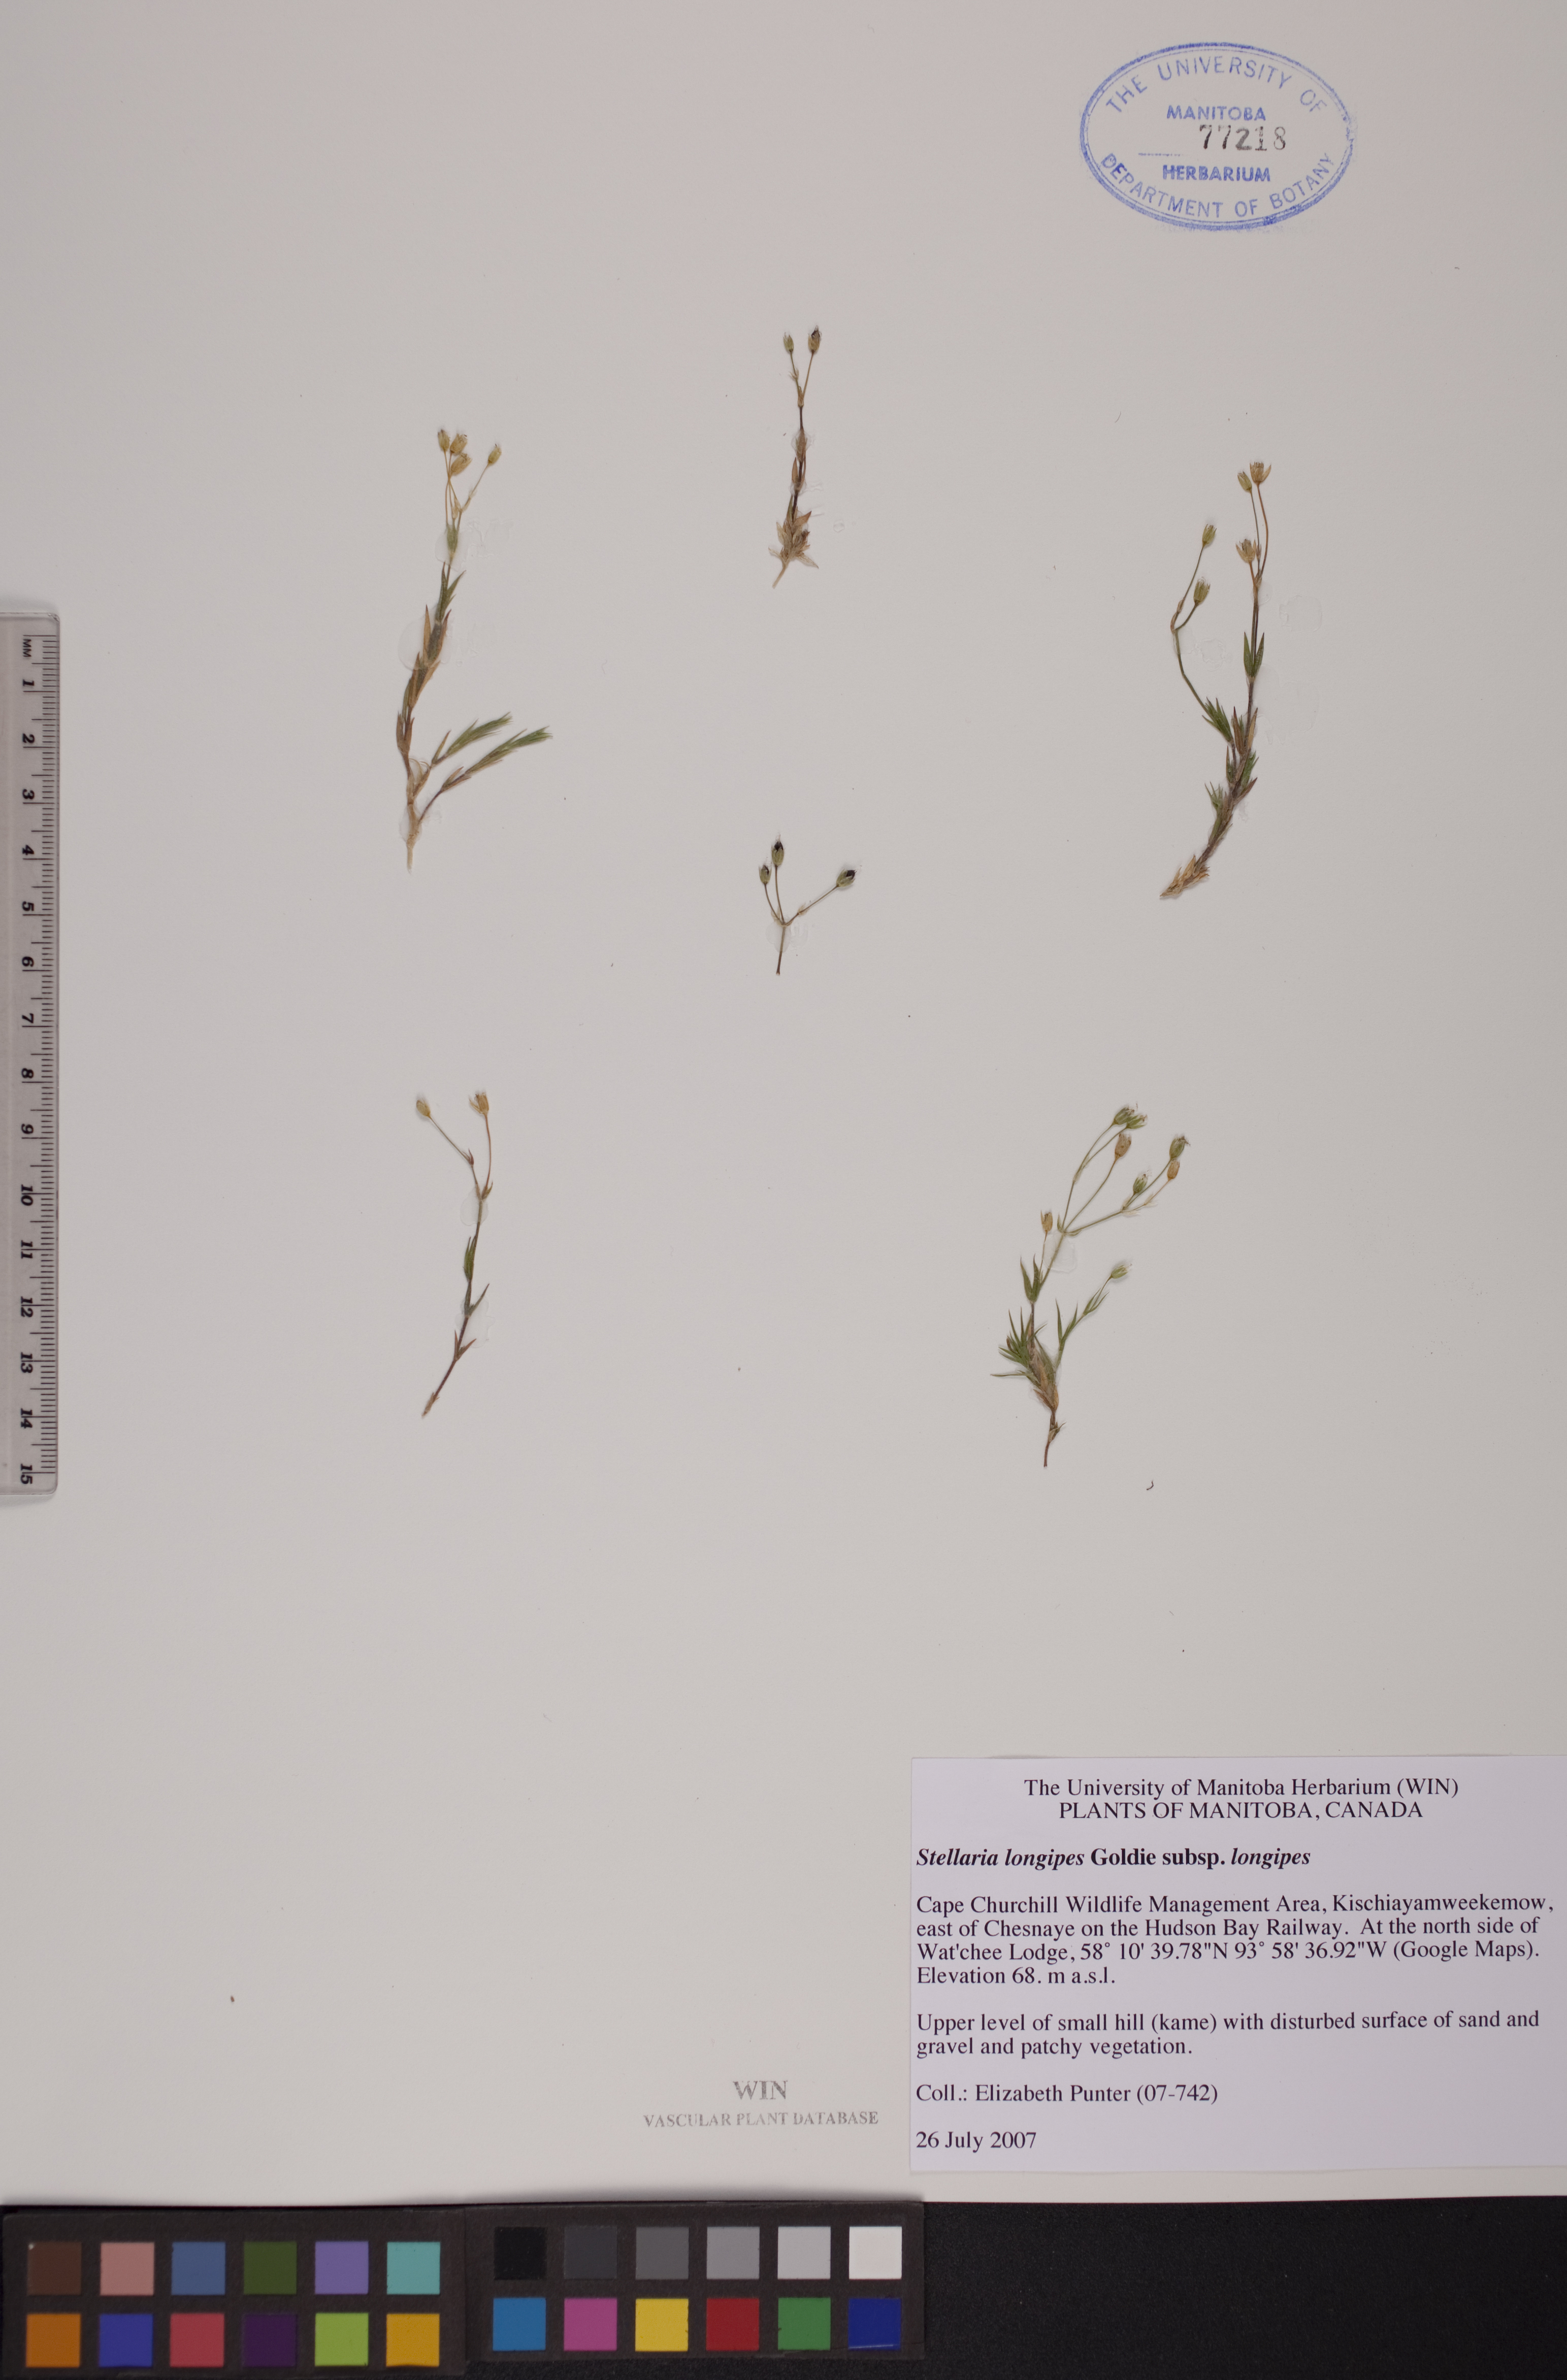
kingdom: Plantae
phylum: Tracheophyta
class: Magnoliopsida
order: Caryophyllales
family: Caryophyllaceae
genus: Stellaria
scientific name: Stellaria longipes
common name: Goldie's starwort
